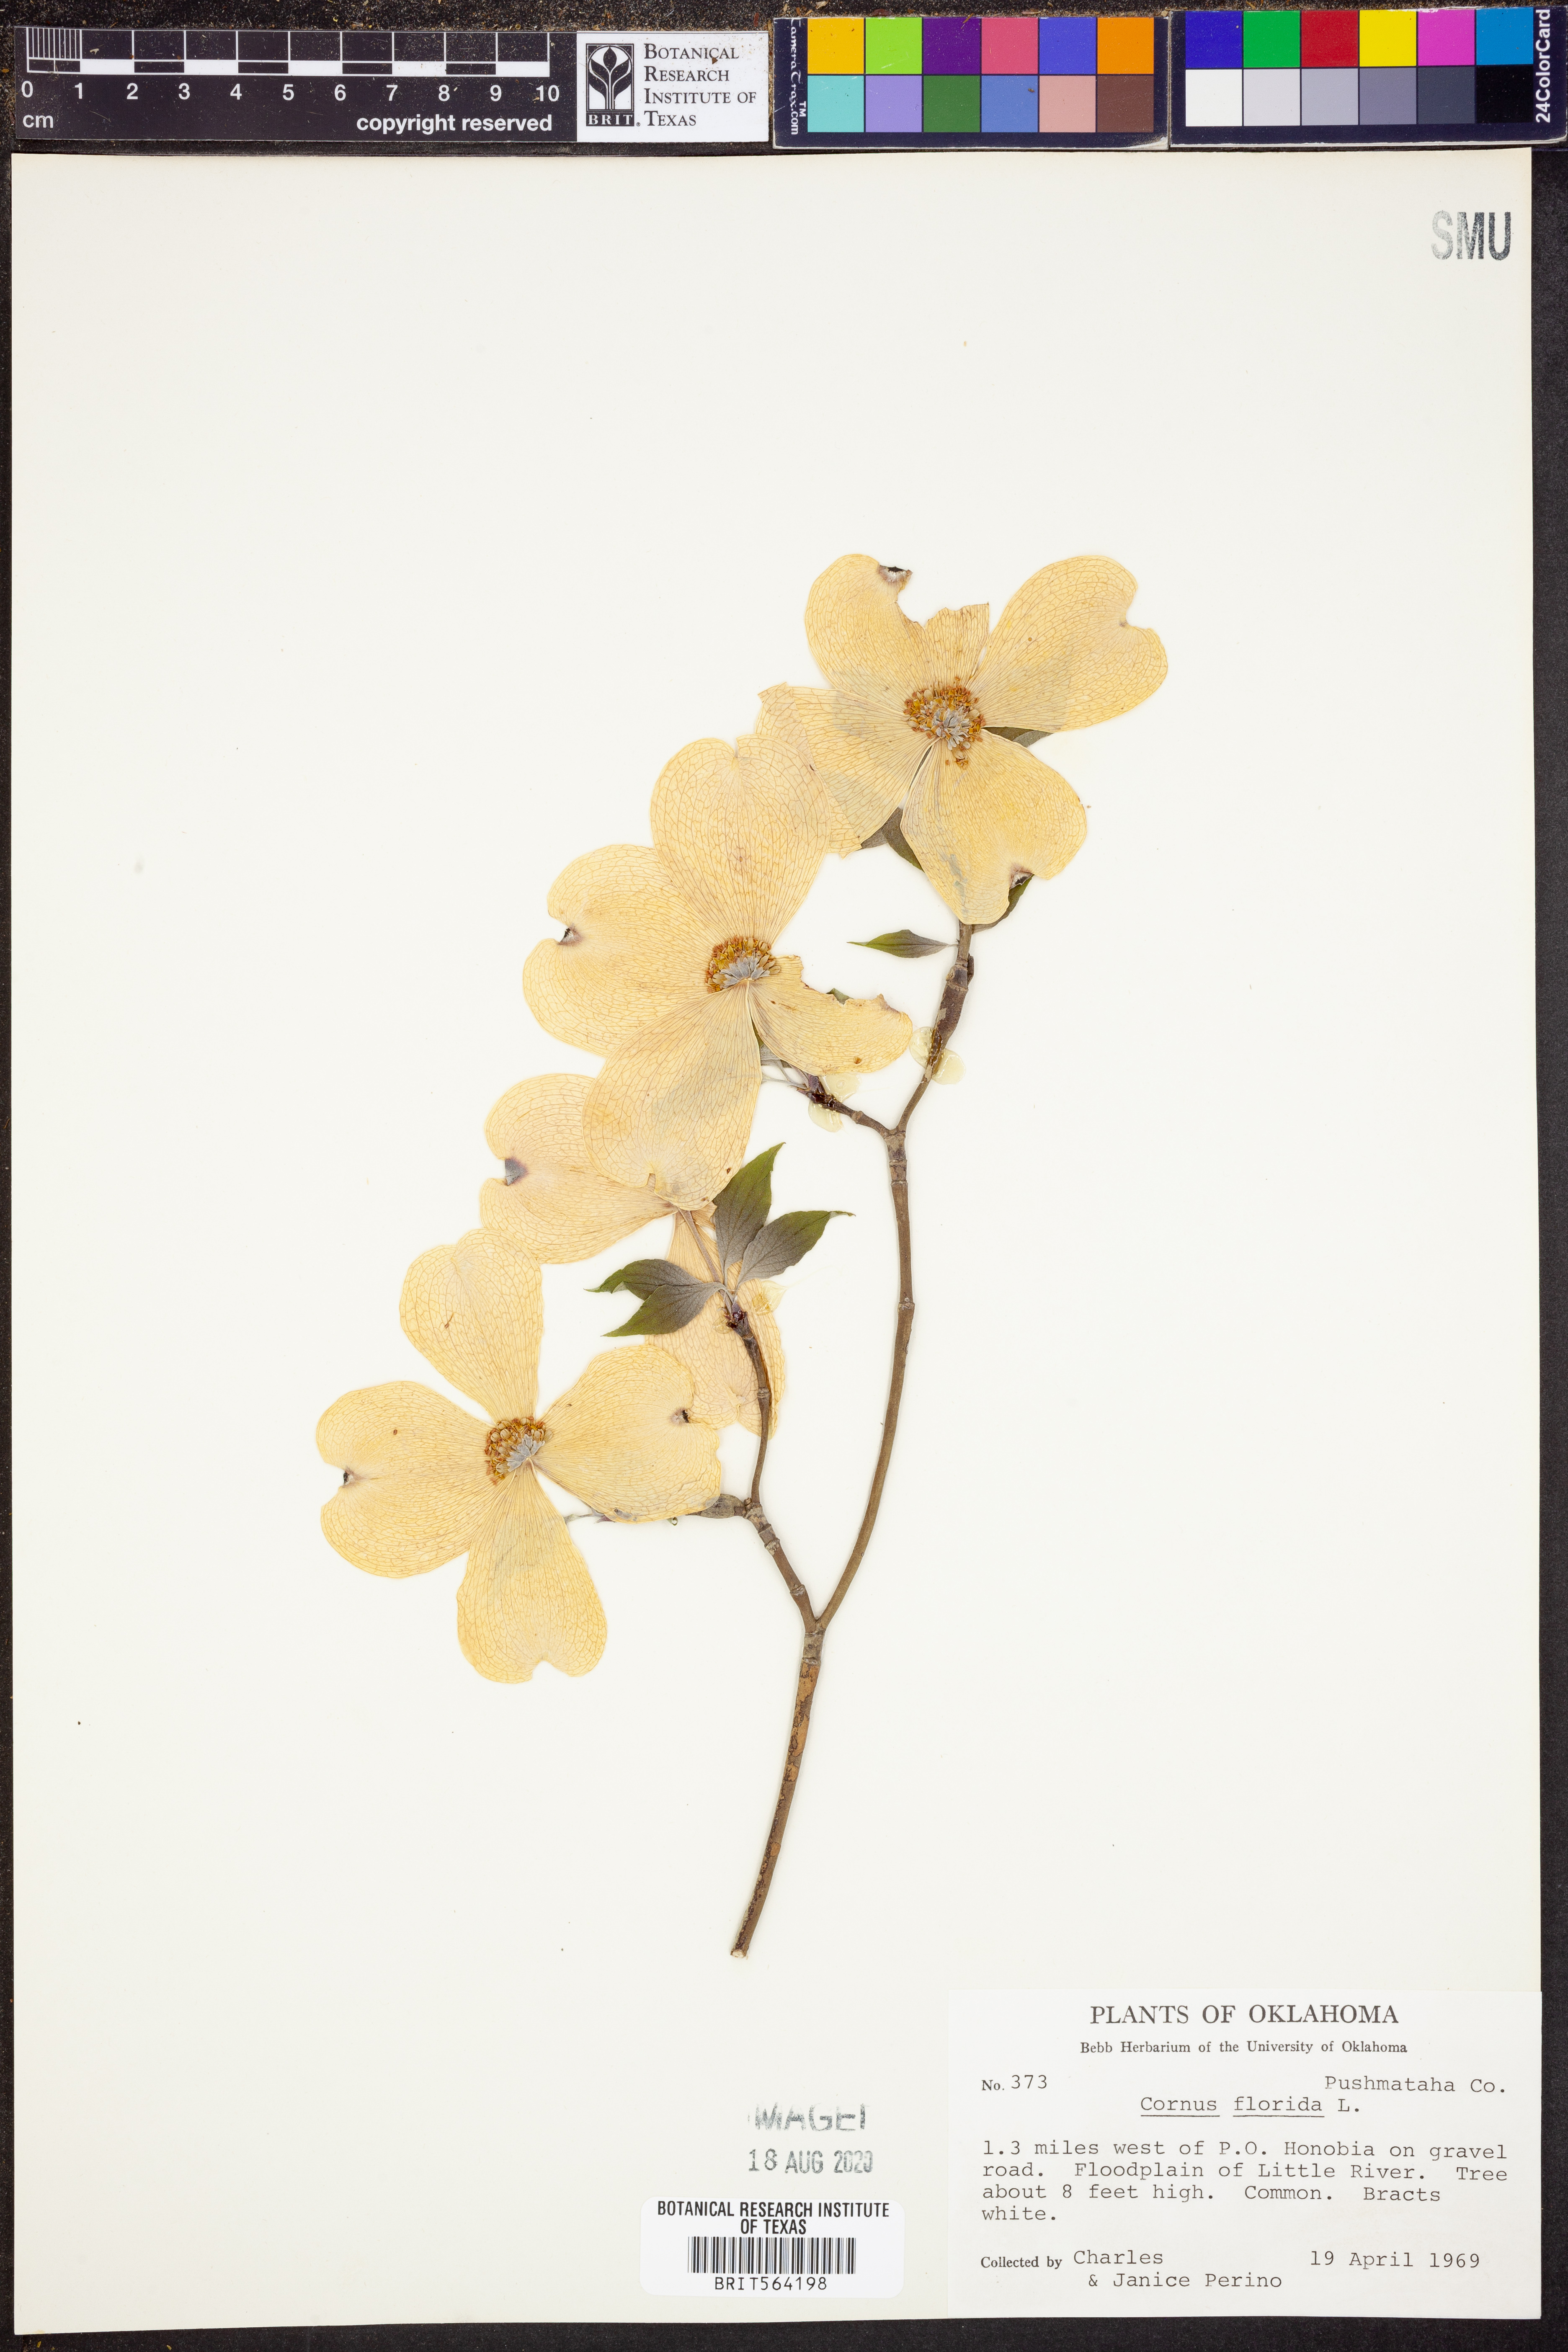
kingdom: Plantae
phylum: Tracheophyta
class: Magnoliopsida
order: Cornales
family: Cornaceae
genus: Cornus
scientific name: Cornus florida
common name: Flowering dogwood
